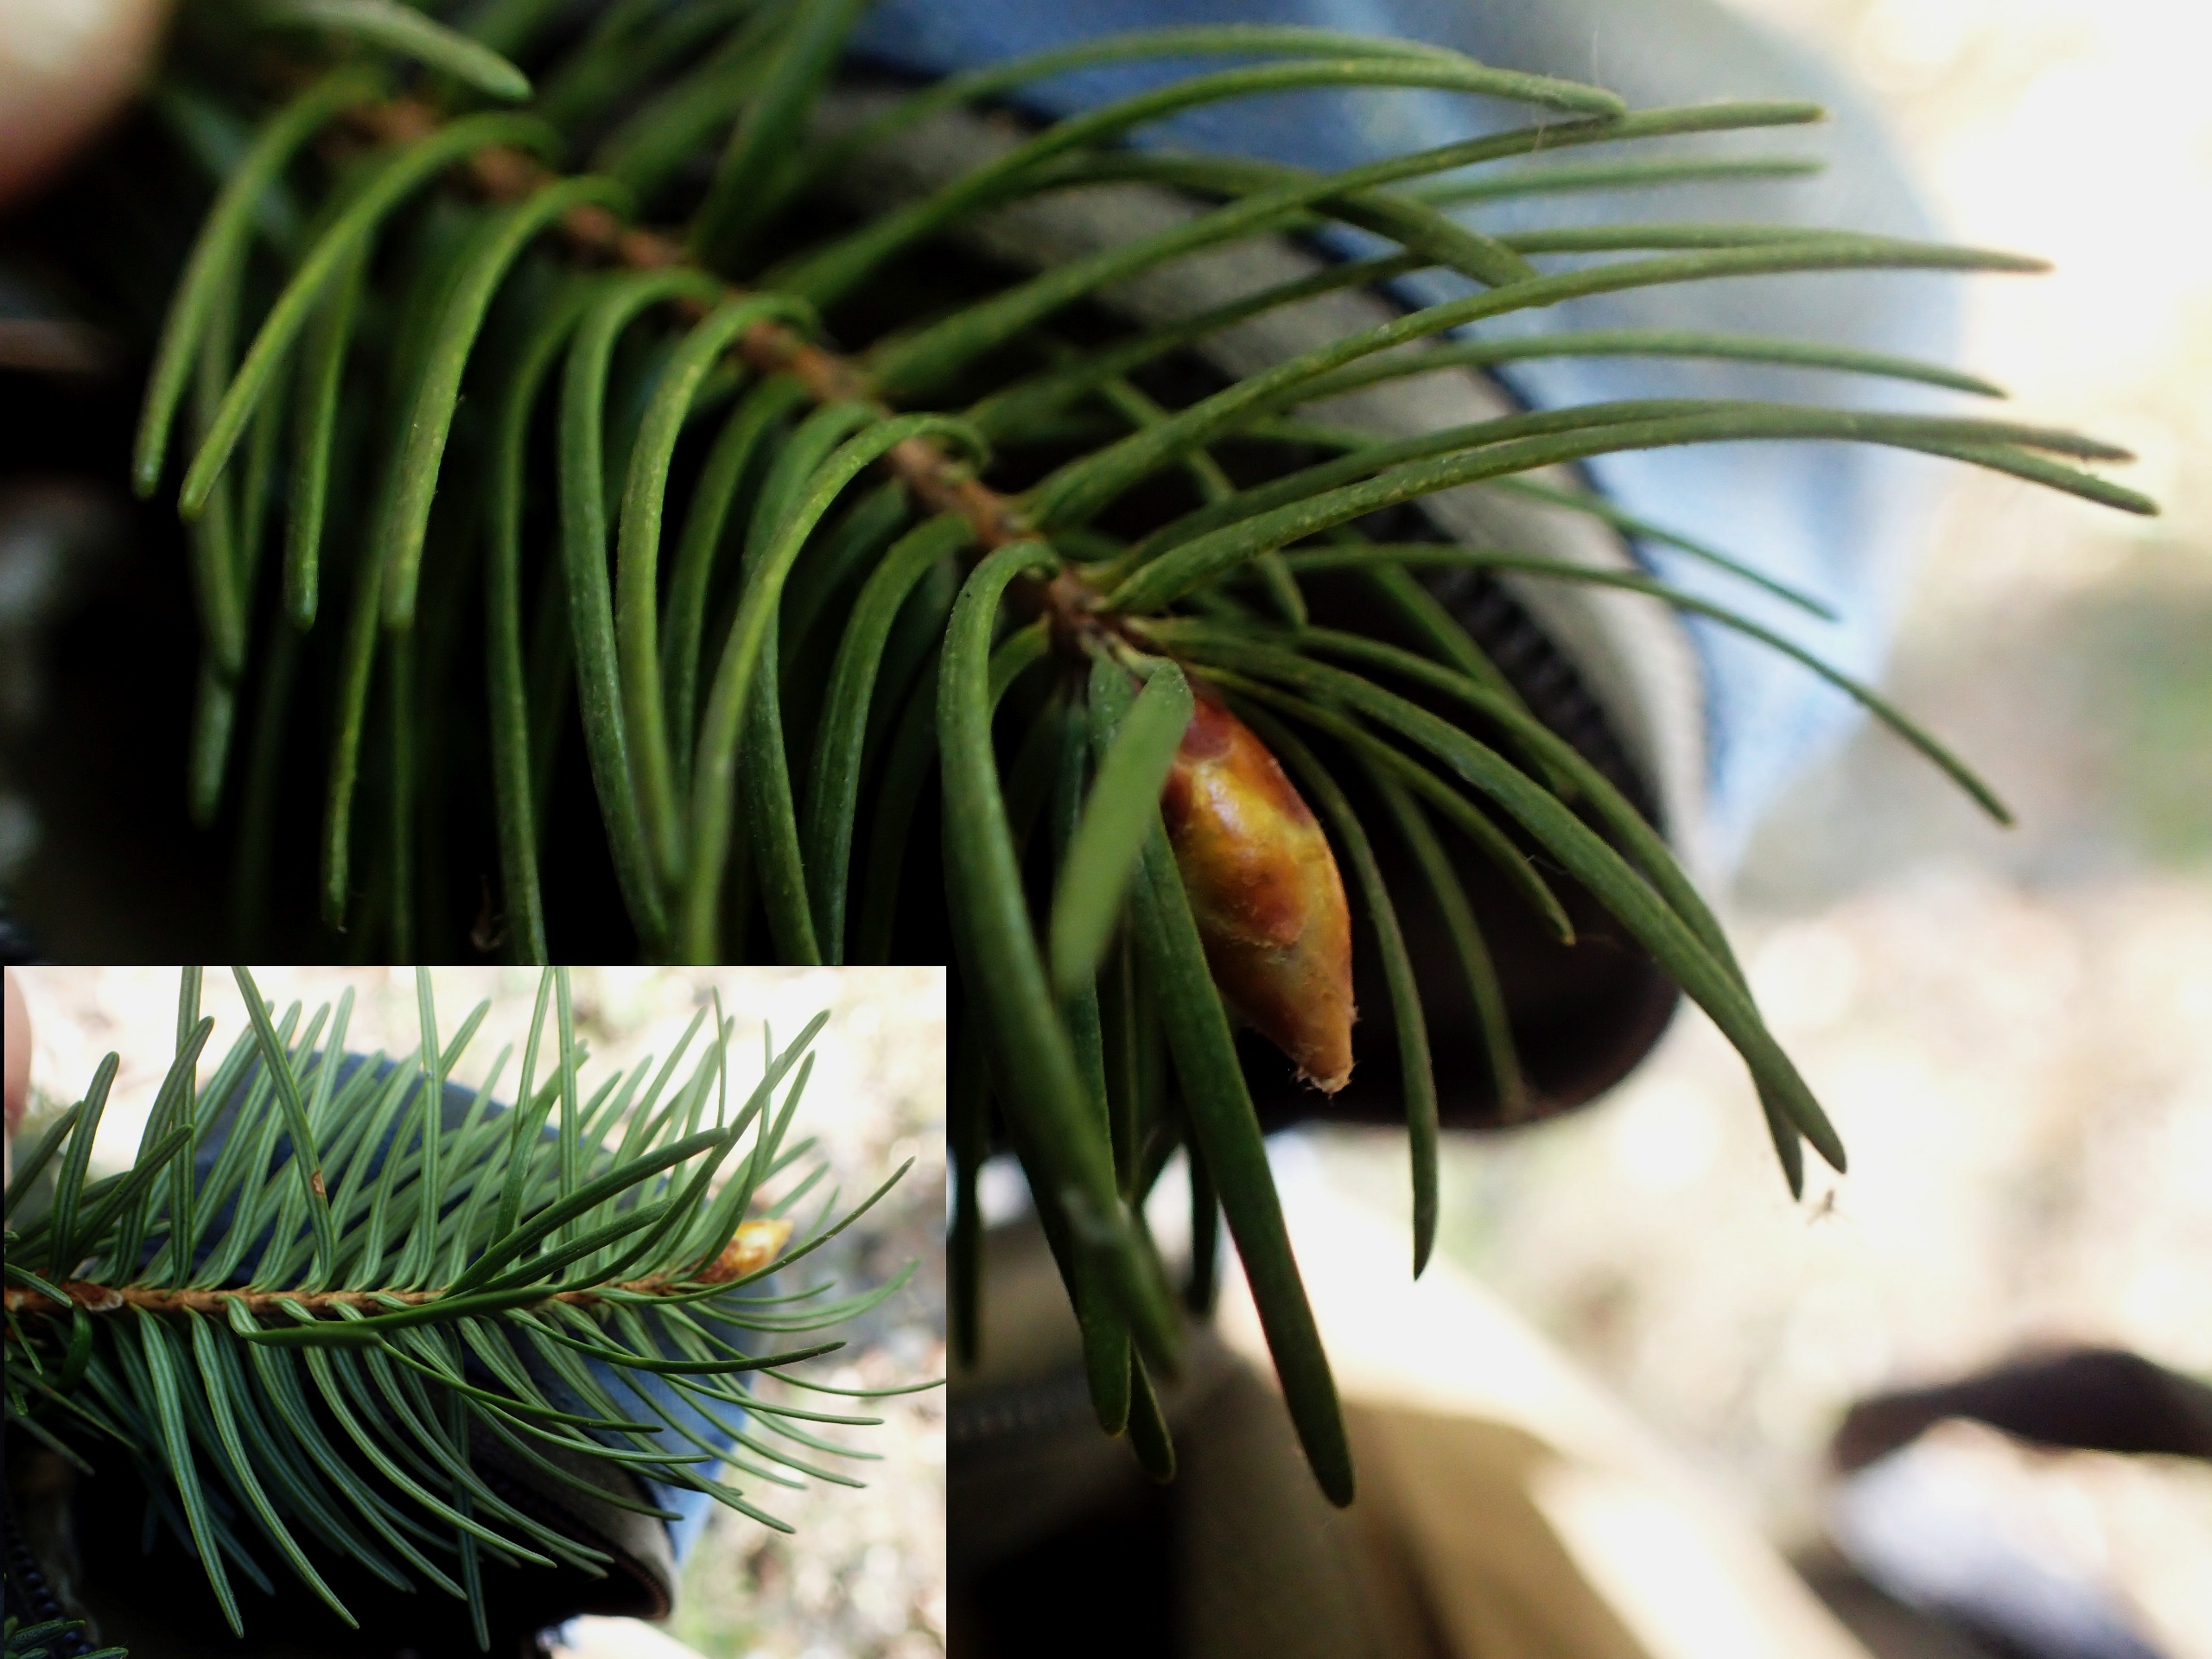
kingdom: Plantae
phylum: Tracheophyta
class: Pinopsida
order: Pinales
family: Pinaceae
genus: Pseudotsuga
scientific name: Pseudotsuga menziesii
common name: Douglasgran
